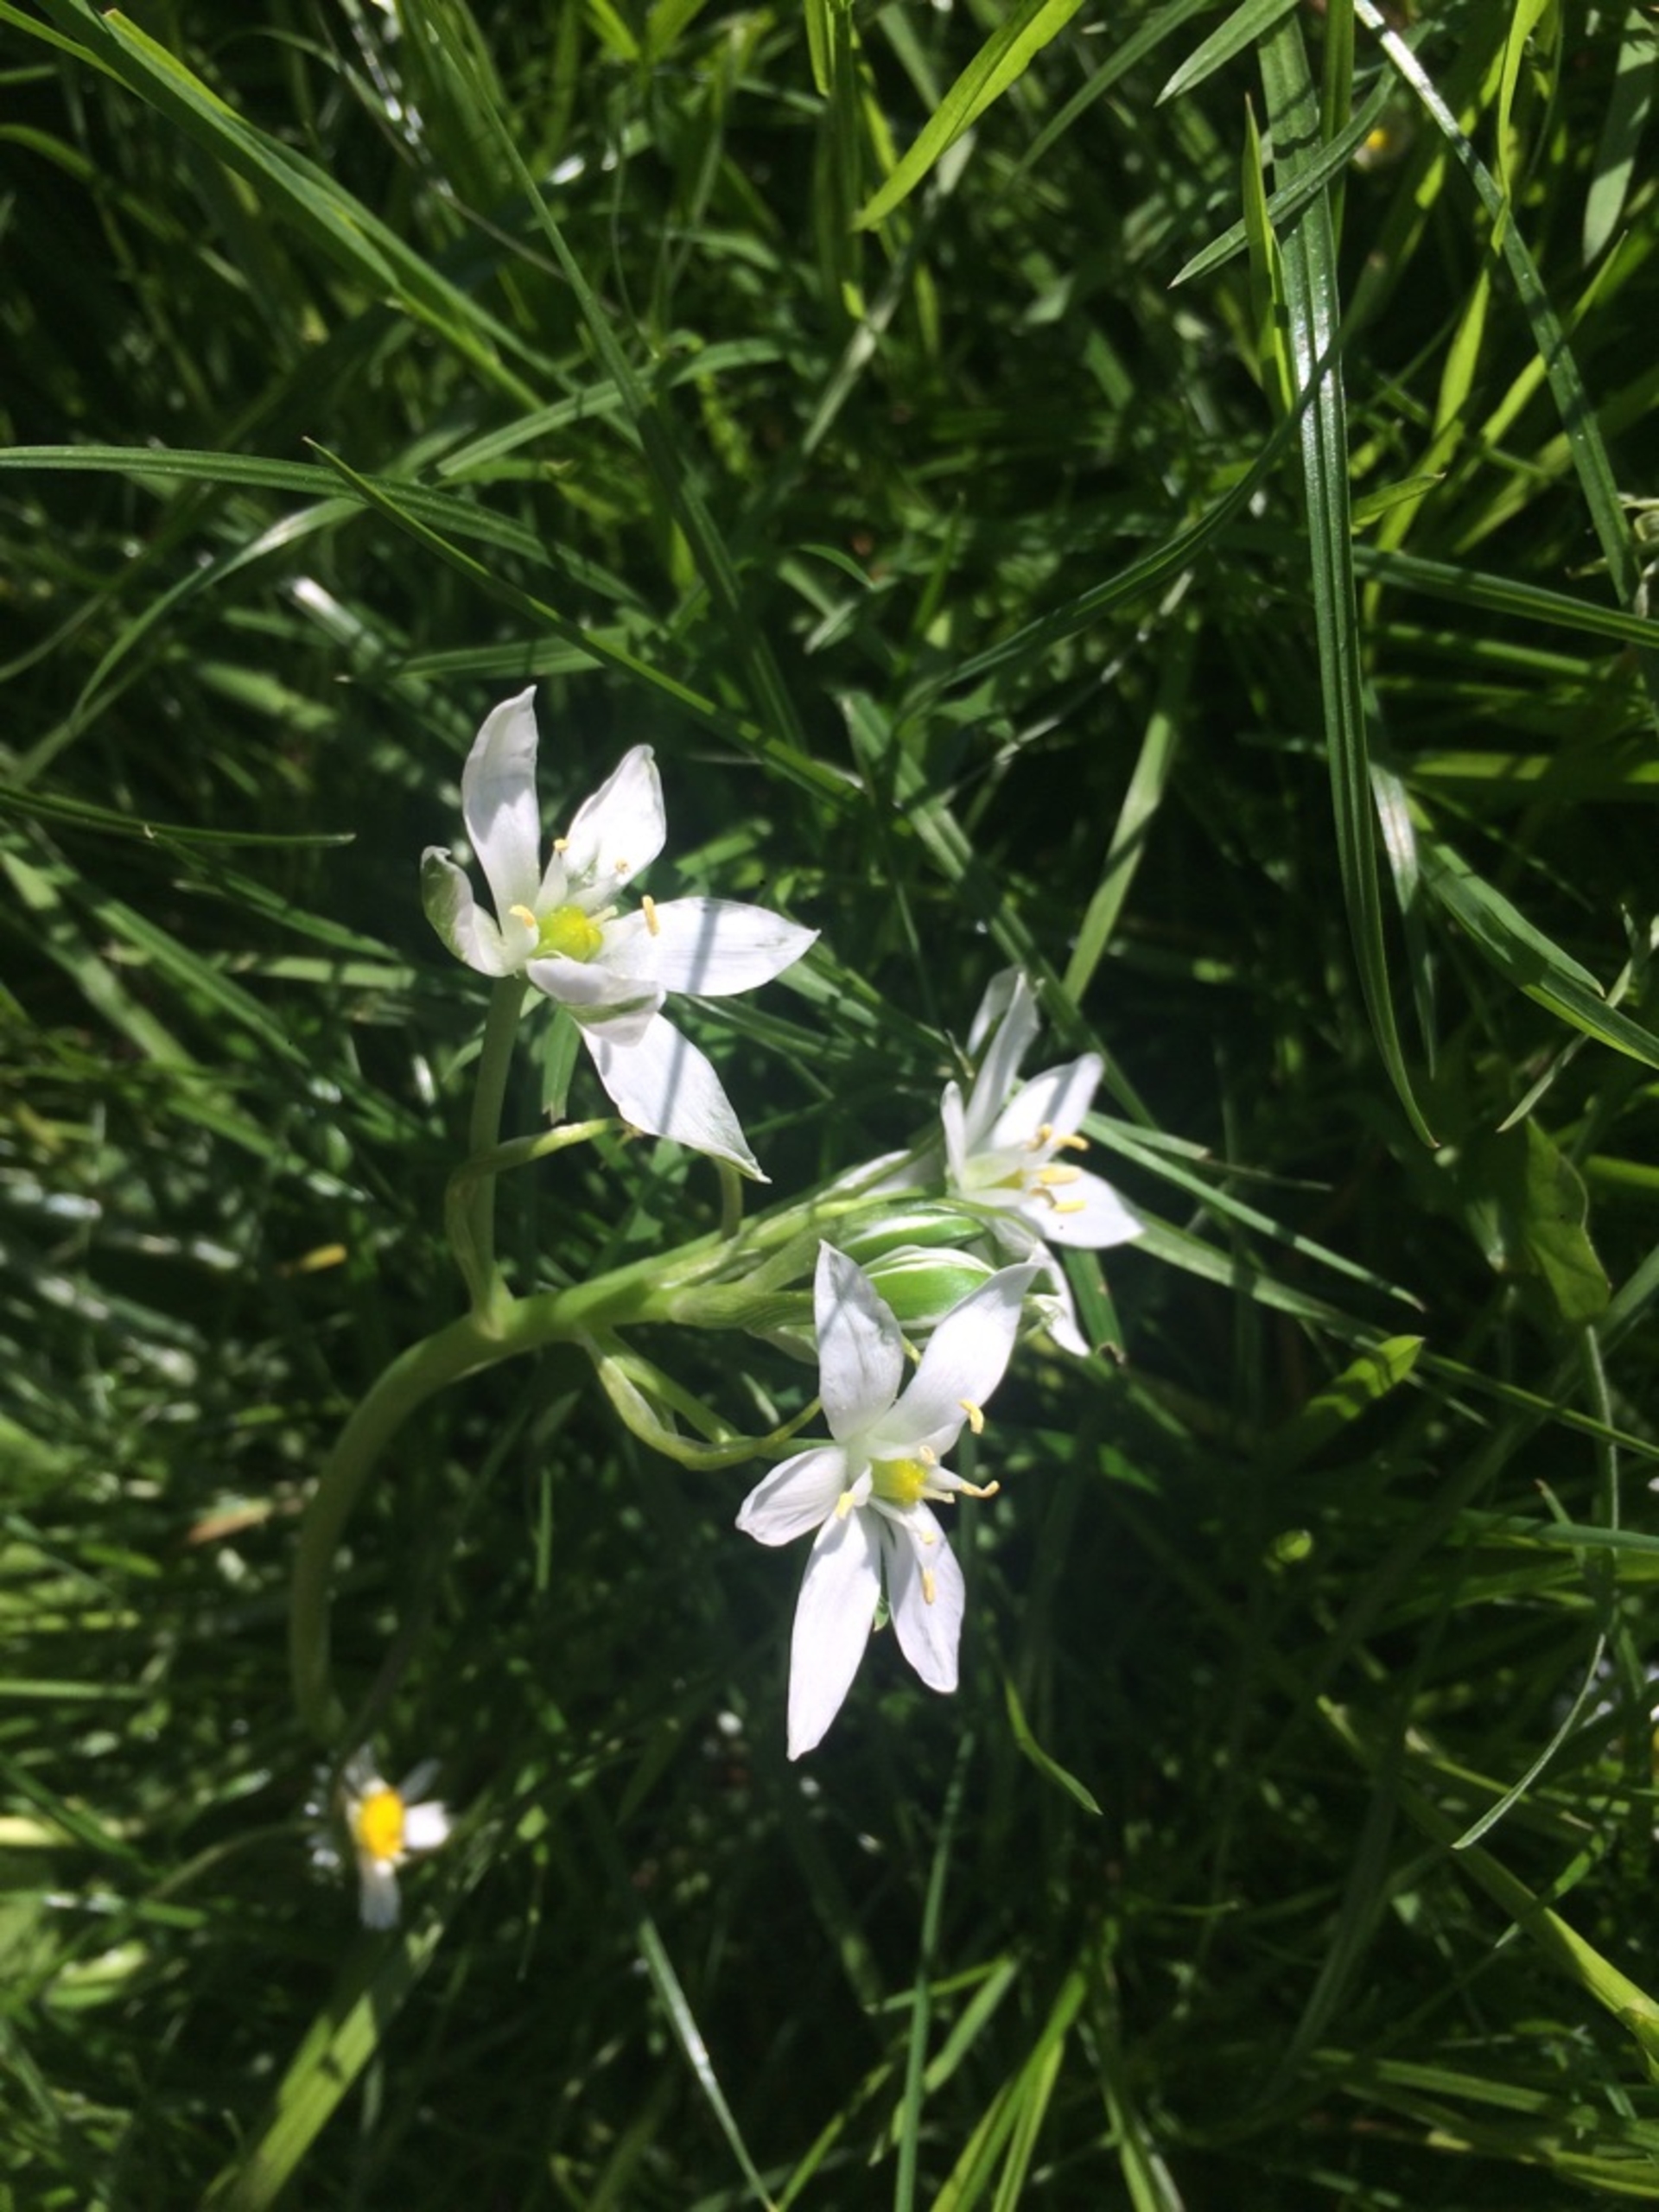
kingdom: Plantae
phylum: Tracheophyta
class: Liliopsida
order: Asparagales
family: Asparagaceae
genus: Ornithogalum
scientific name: Ornithogalum umbellatum
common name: Kost-fuglemælk
